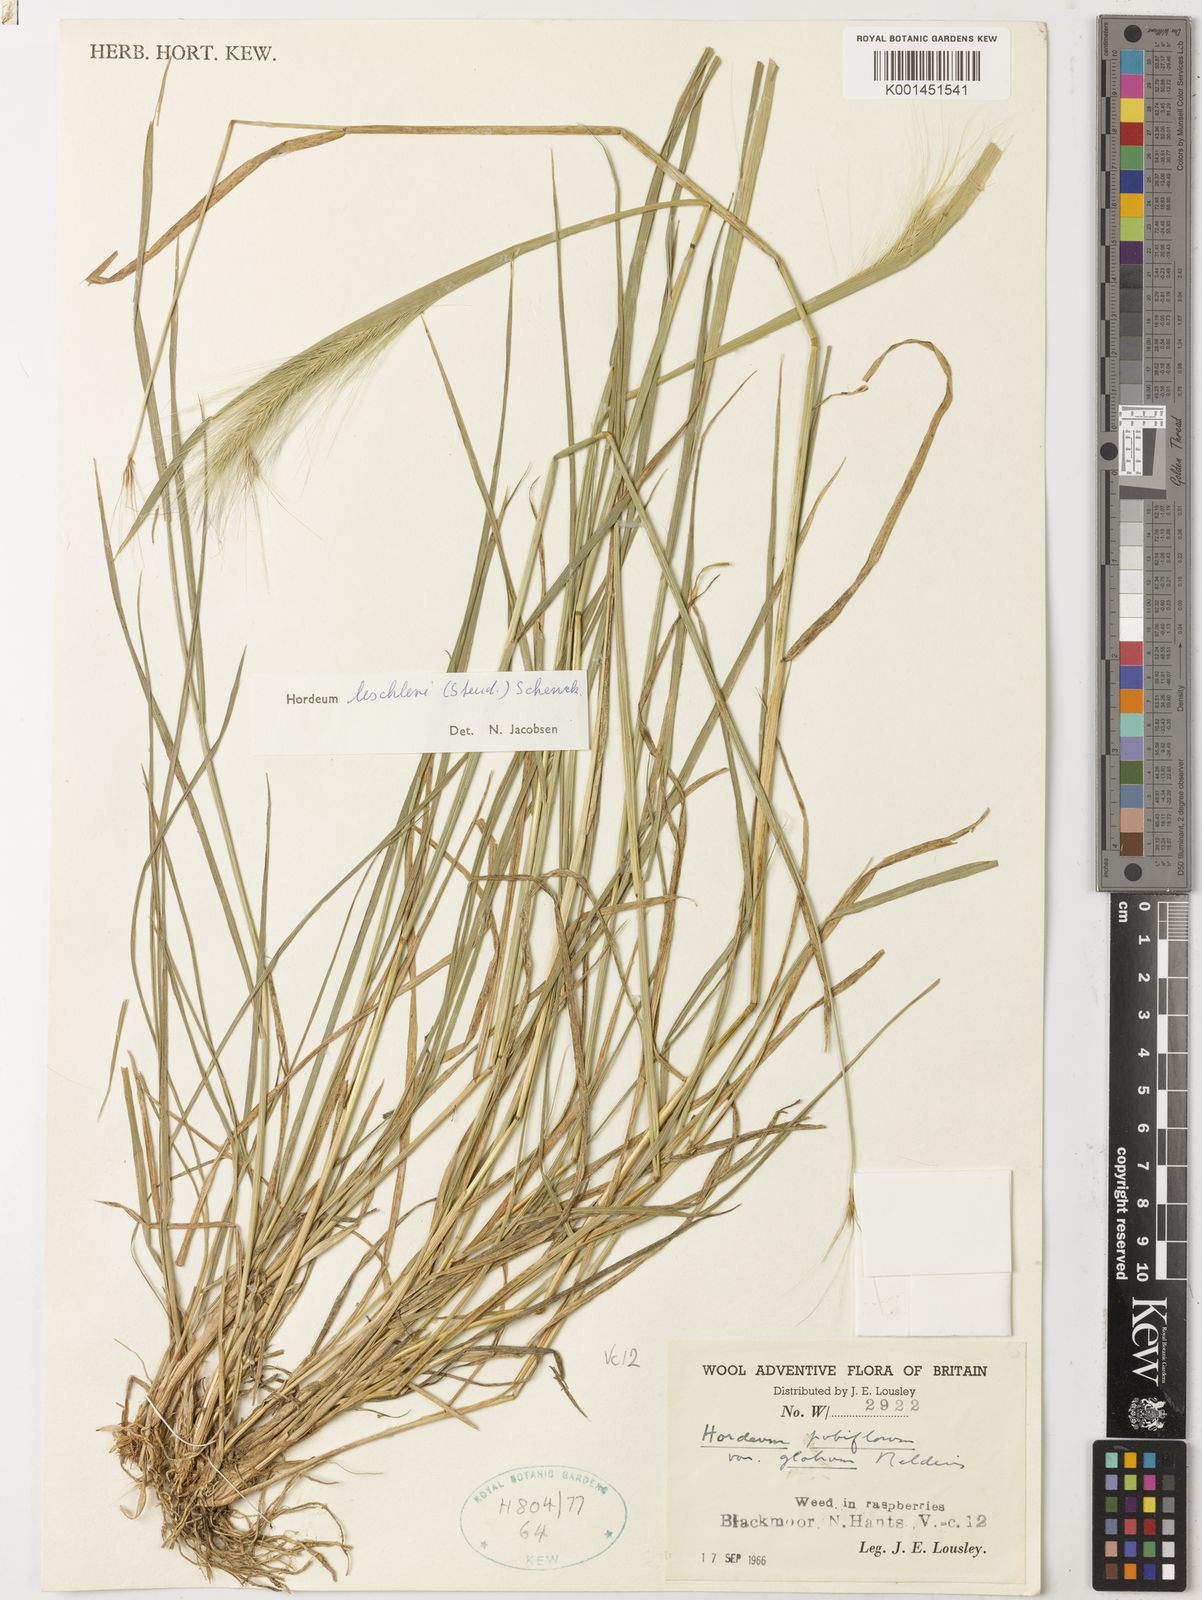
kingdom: Plantae
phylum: Tracheophyta
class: Liliopsida
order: Poales
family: Poaceae
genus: Hordeum
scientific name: Hordeum lechleri
